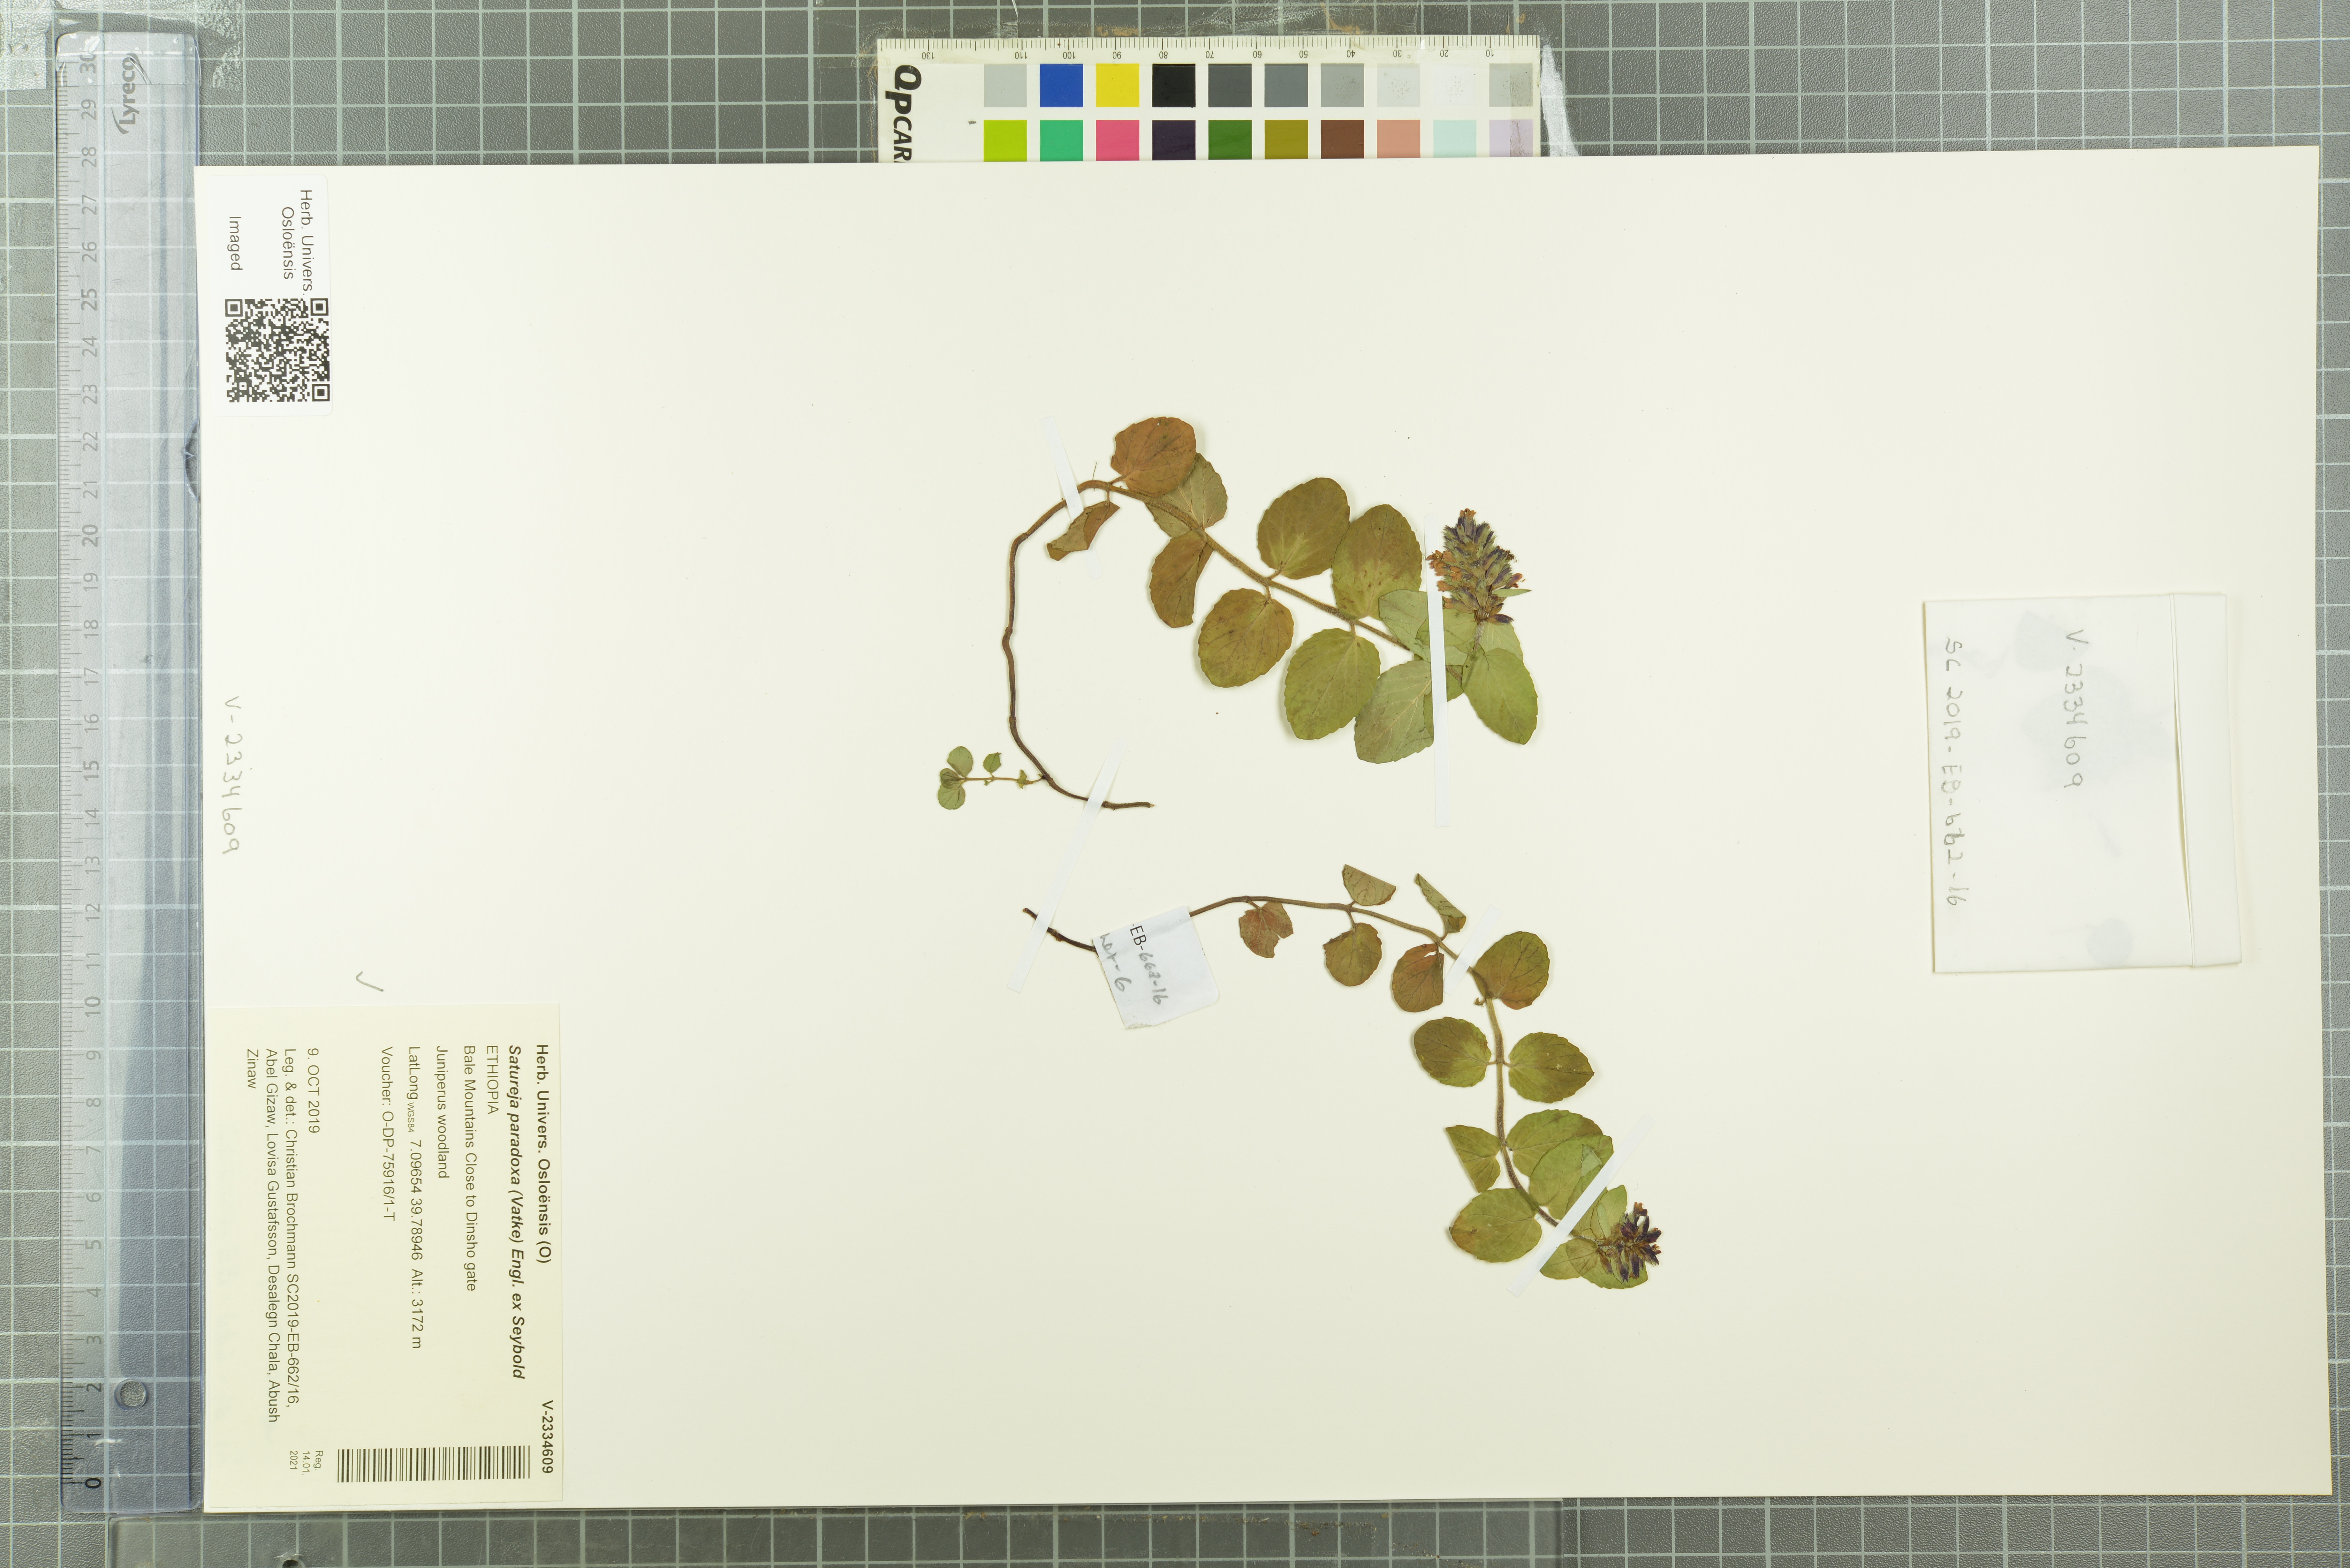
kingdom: Plantae
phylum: Tracheophyta
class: Magnoliopsida
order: Lamiales
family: Lamiaceae
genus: Clinopodium
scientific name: Clinopodium paradoxum
